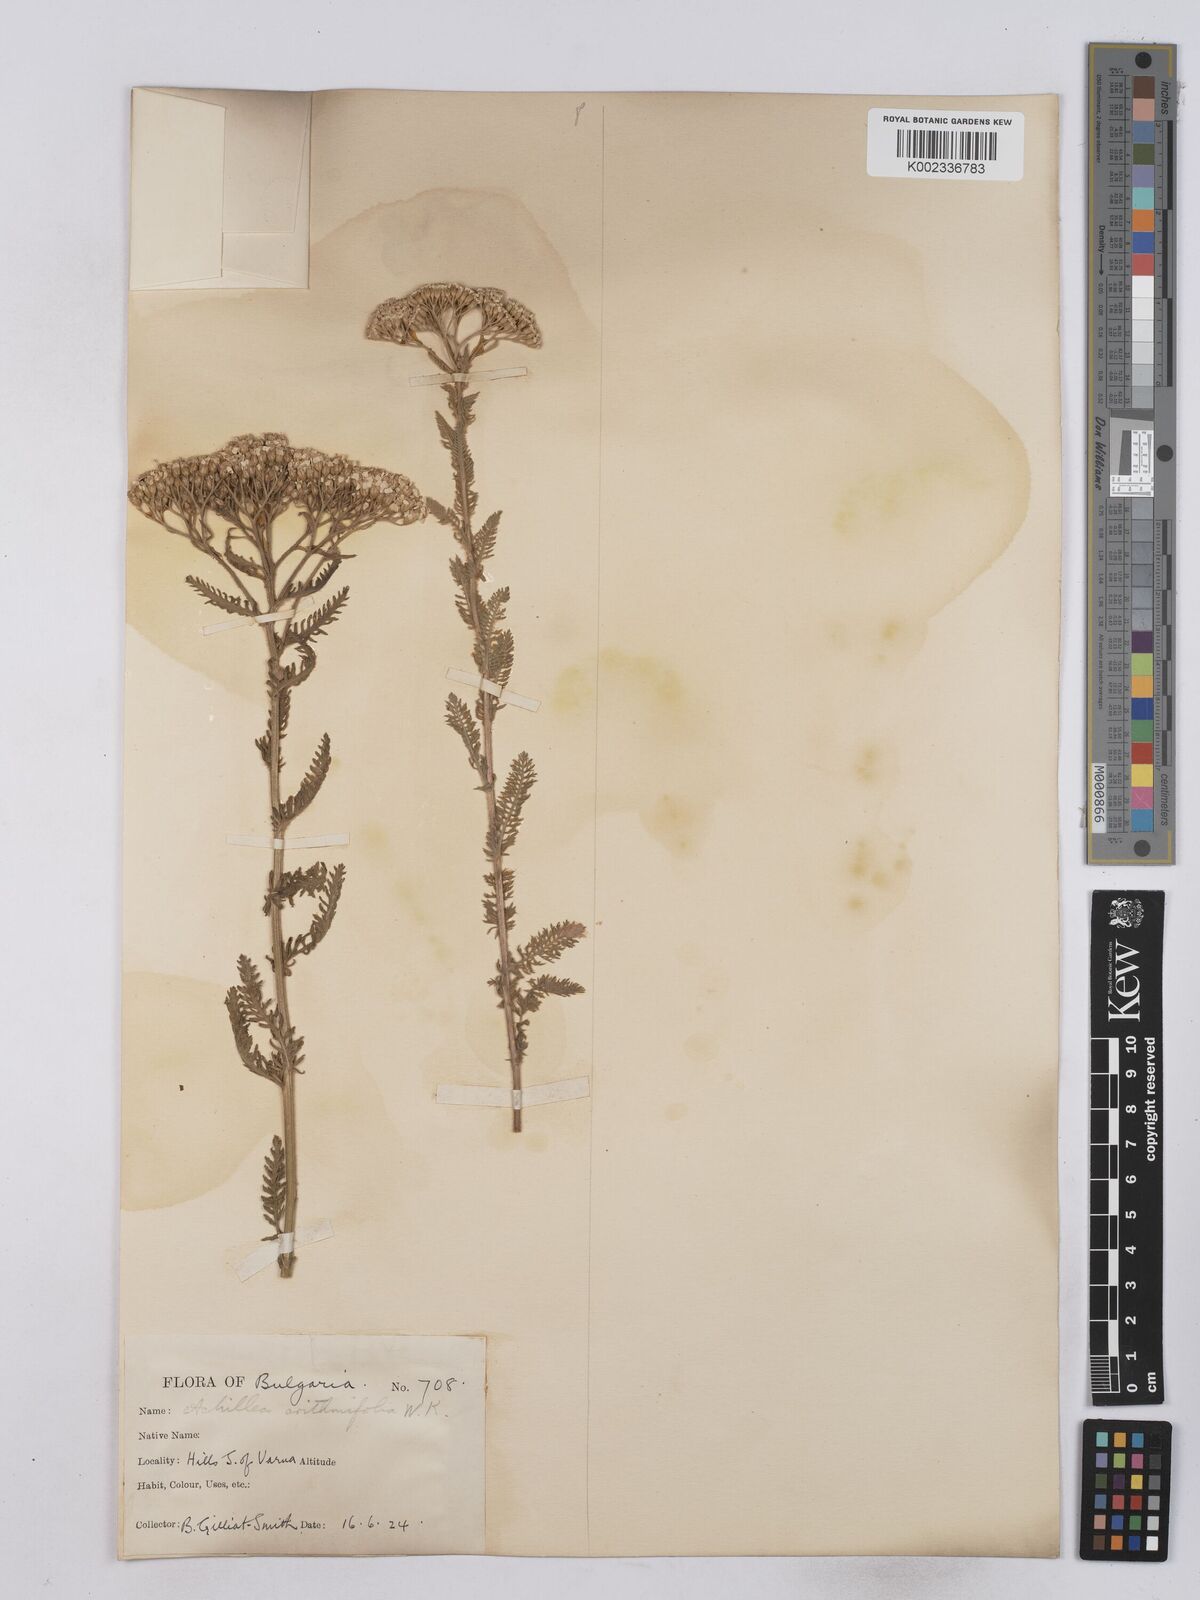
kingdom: Plantae
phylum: Tracheophyta
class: Magnoliopsida
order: Asterales
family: Asteraceae
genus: Achillea
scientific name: Achillea crithmifolia
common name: Yarrow
